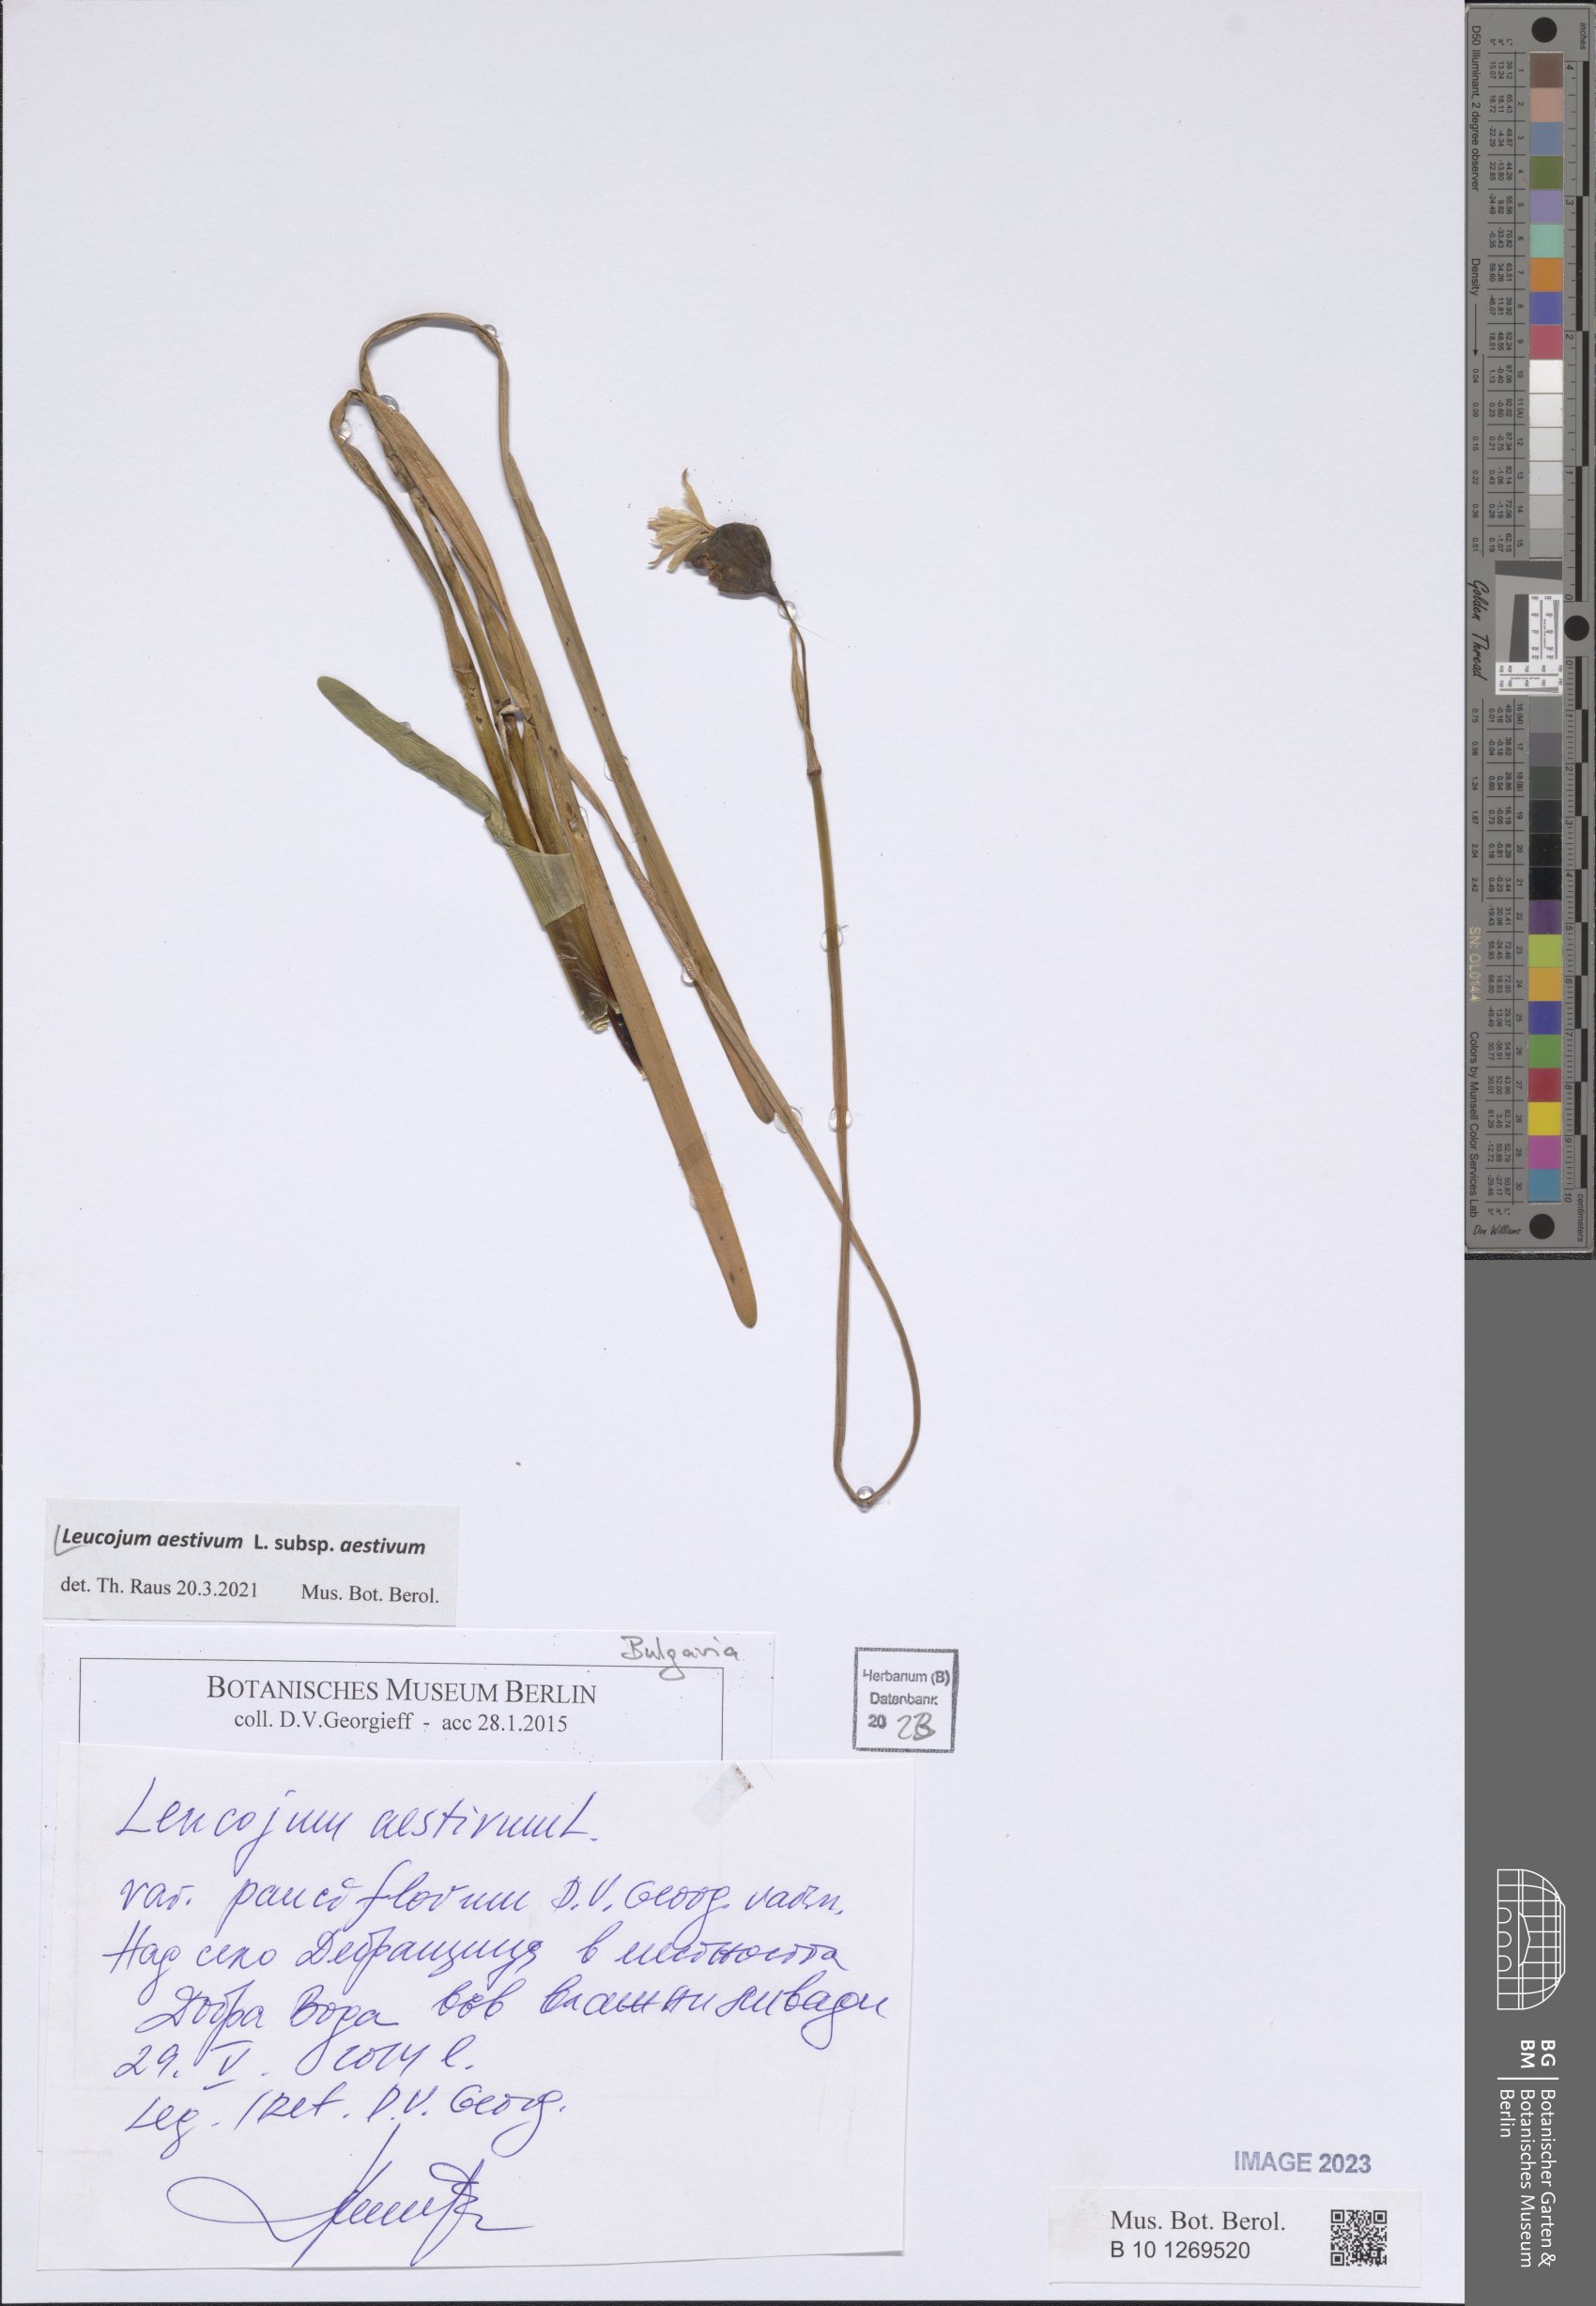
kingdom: Plantae
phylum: Tracheophyta
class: Liliopsida
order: Asparagales
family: Amaryllidaceae
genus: Leucojum
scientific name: Leucojum aestivum
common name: Summer snowflake
